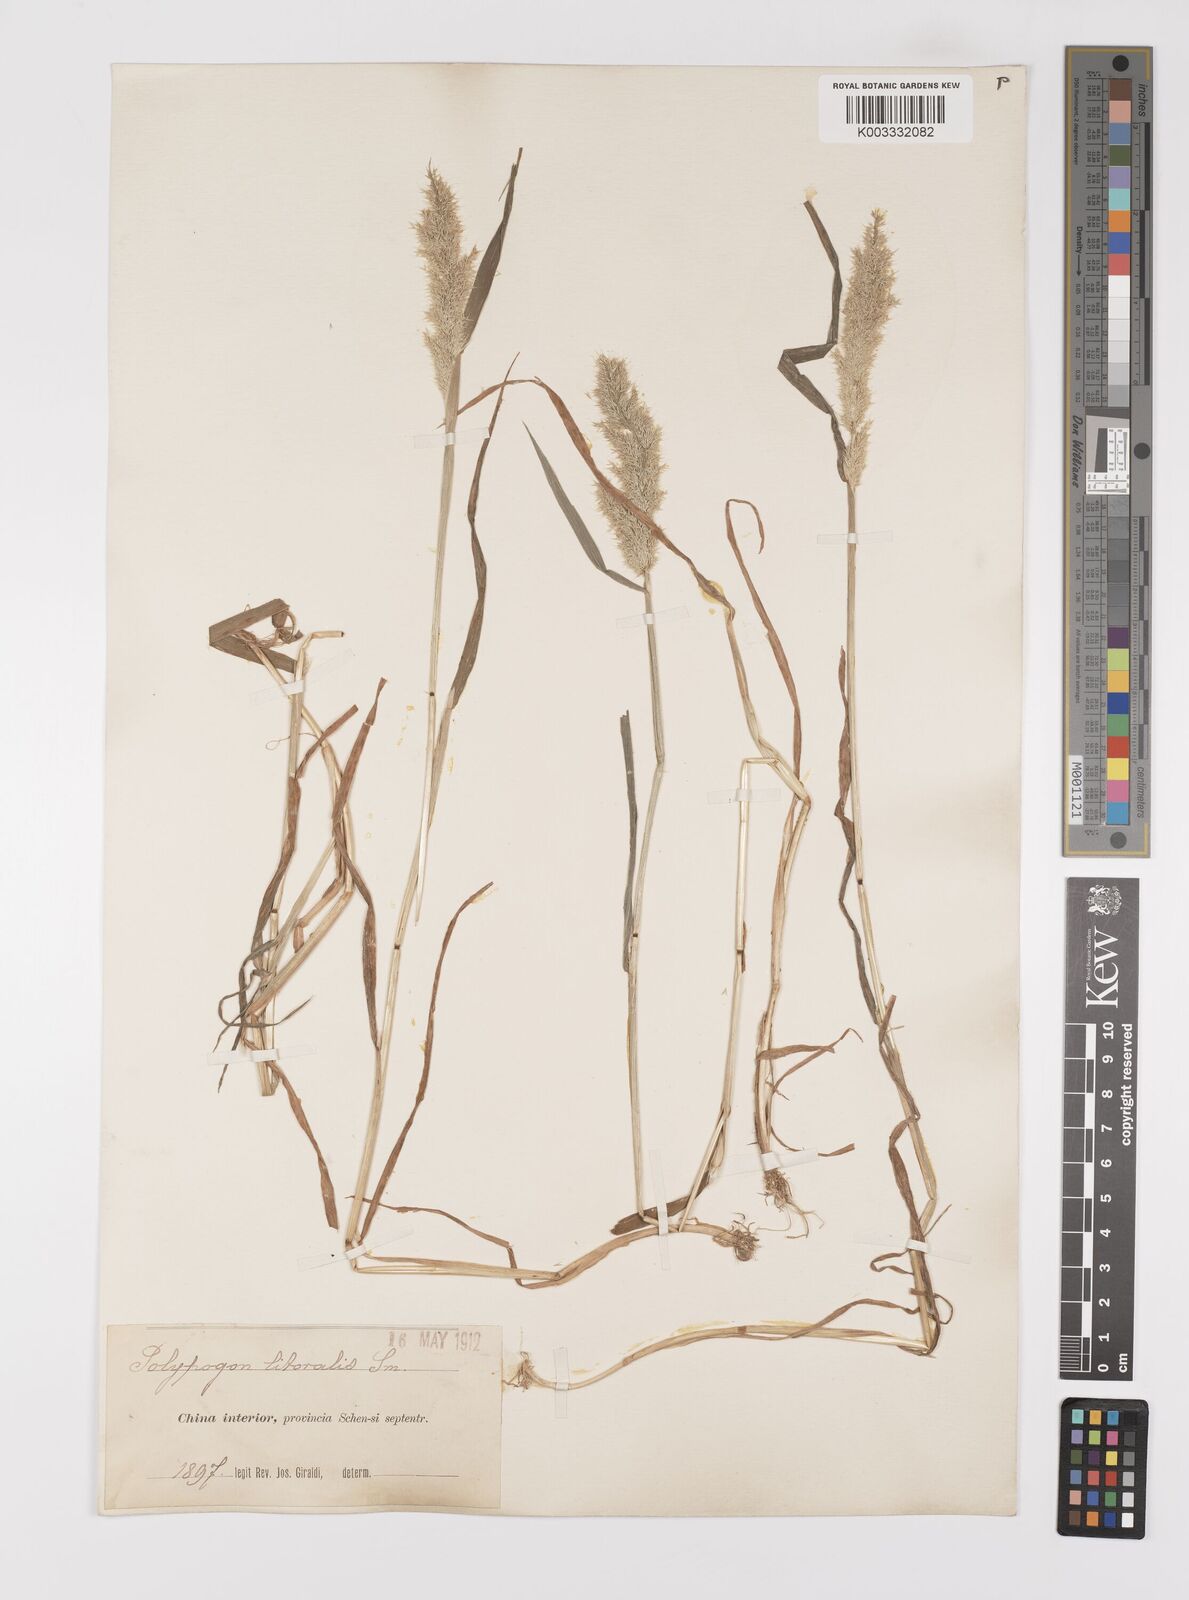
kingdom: Plantae
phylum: Tracheophyta
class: Liliopsida
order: Poales
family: Poaceae
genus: Polypogon
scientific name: Polypogon fugax
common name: Asia minor bluegrass
